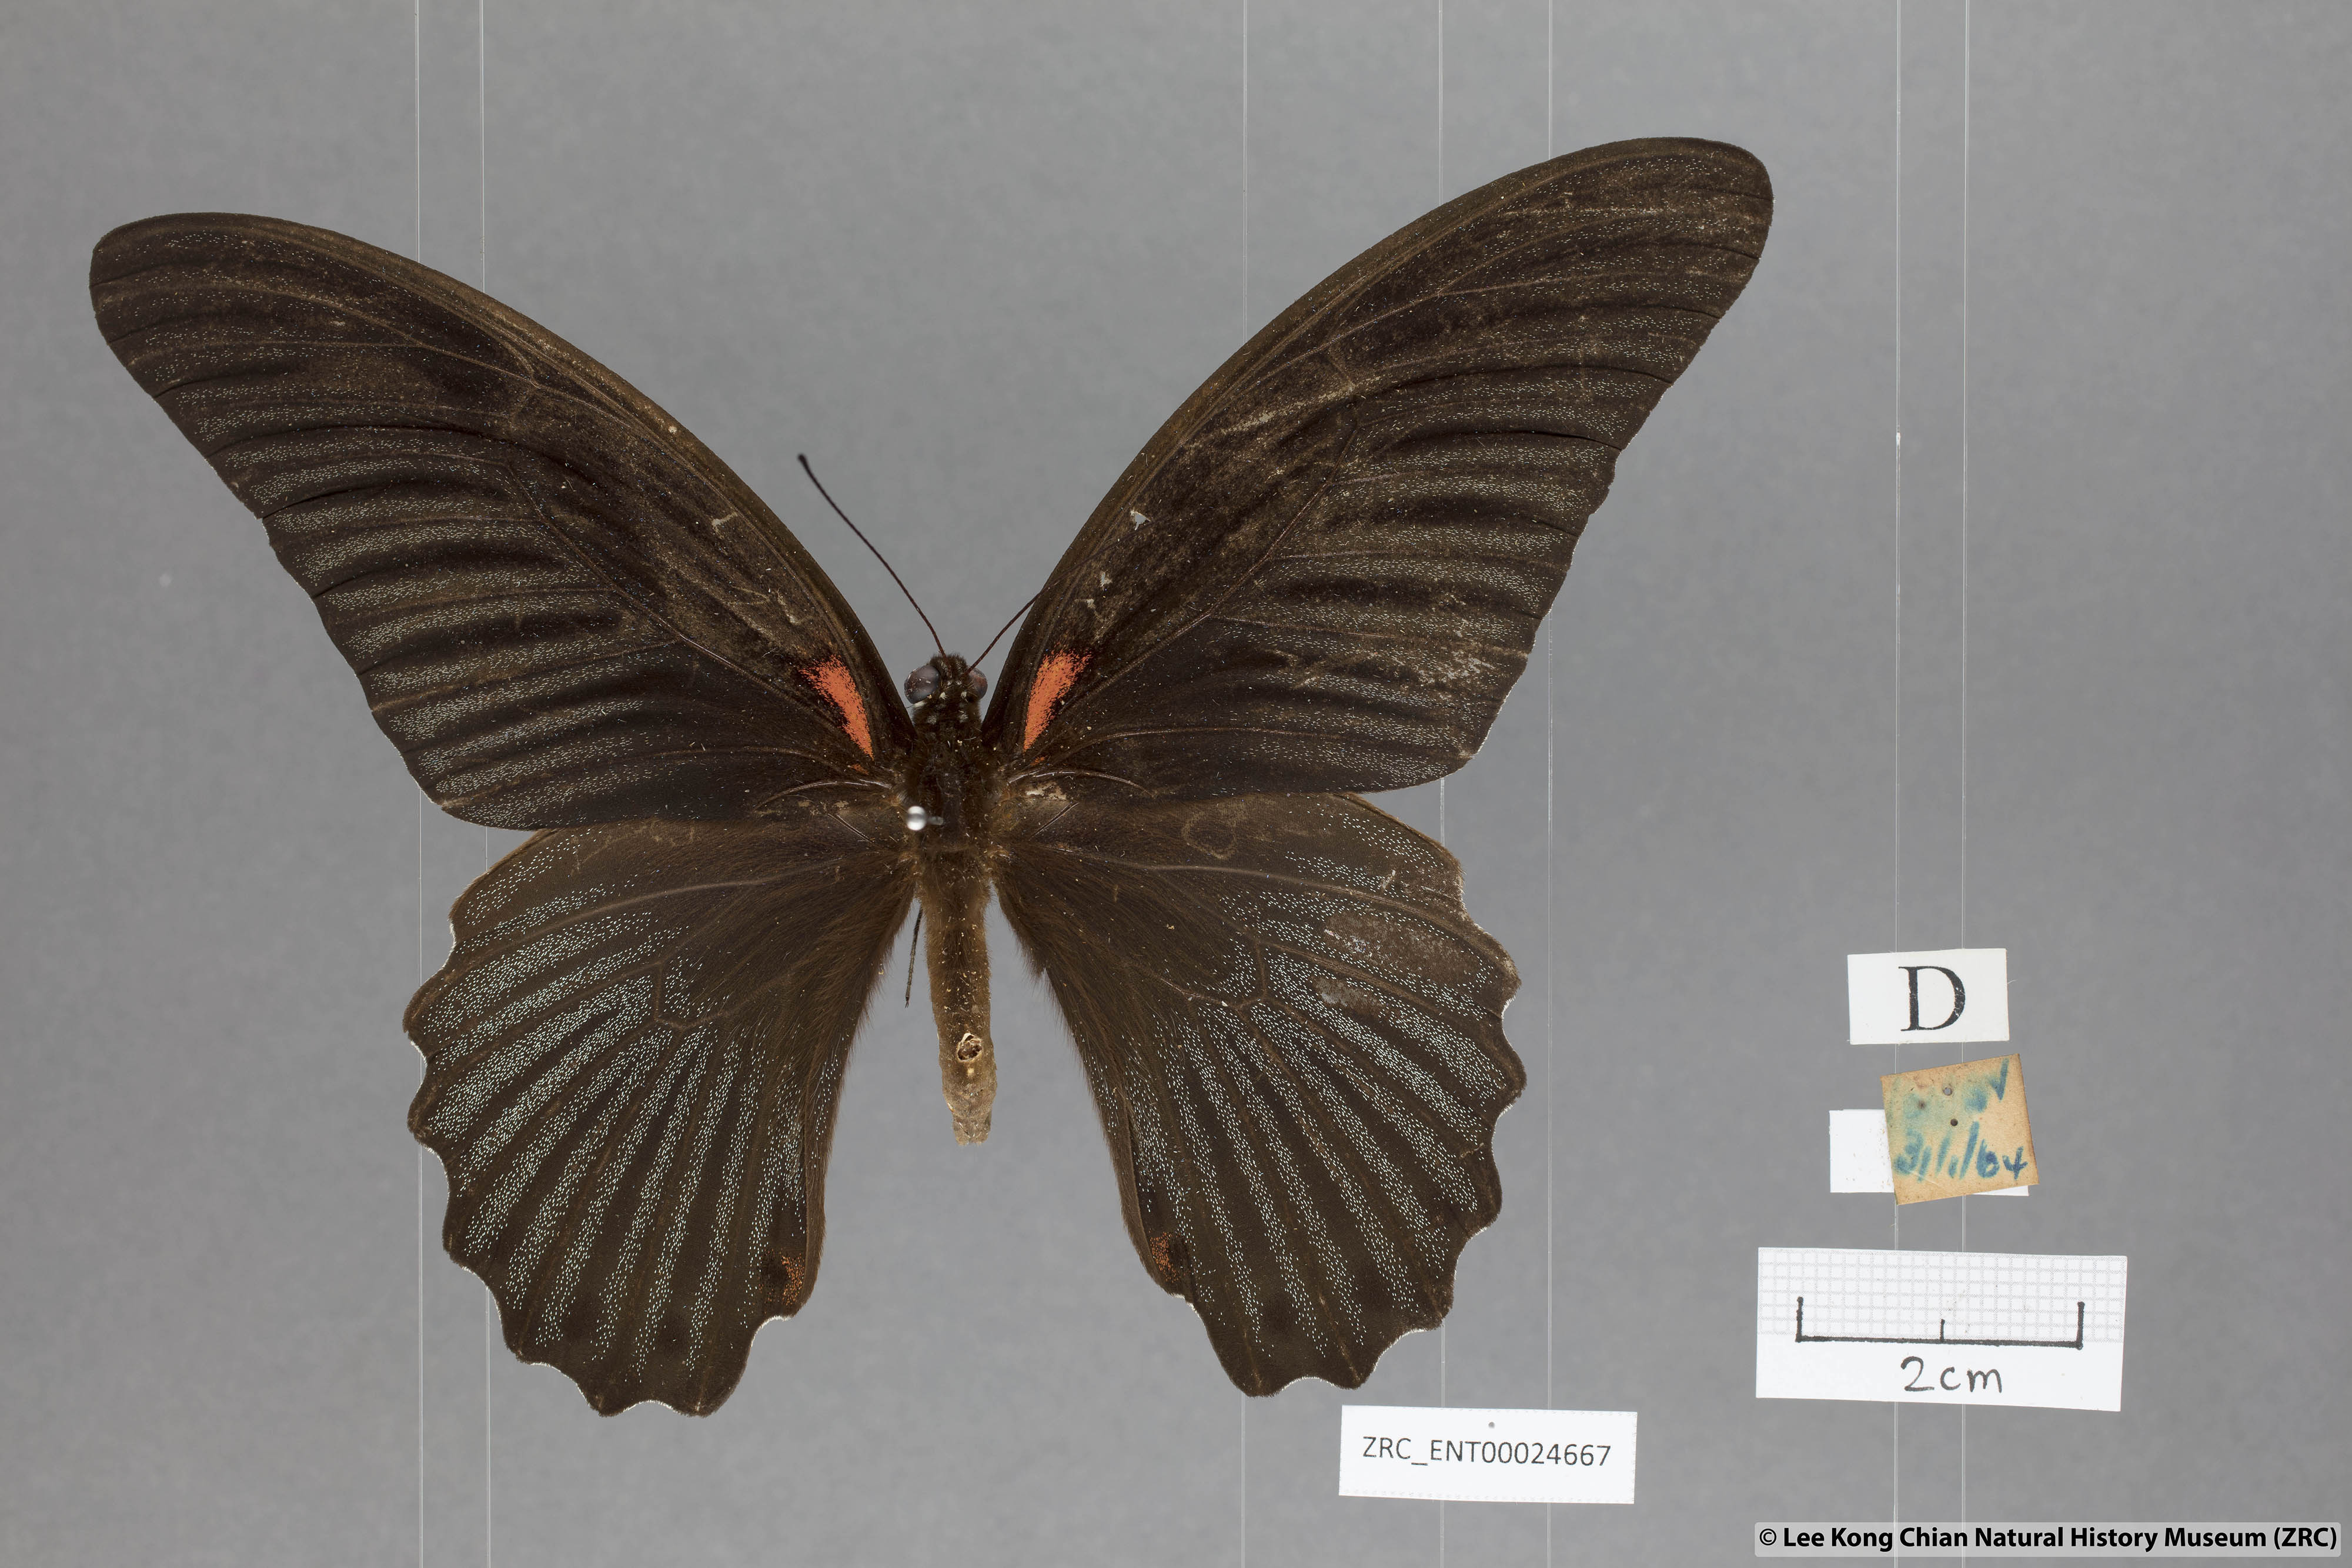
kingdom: Animalia
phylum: Arthropoda
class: Insecta
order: Lepidoptera
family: Papilionidae
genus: Papilio
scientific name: Papilio memnon
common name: Great mormon
